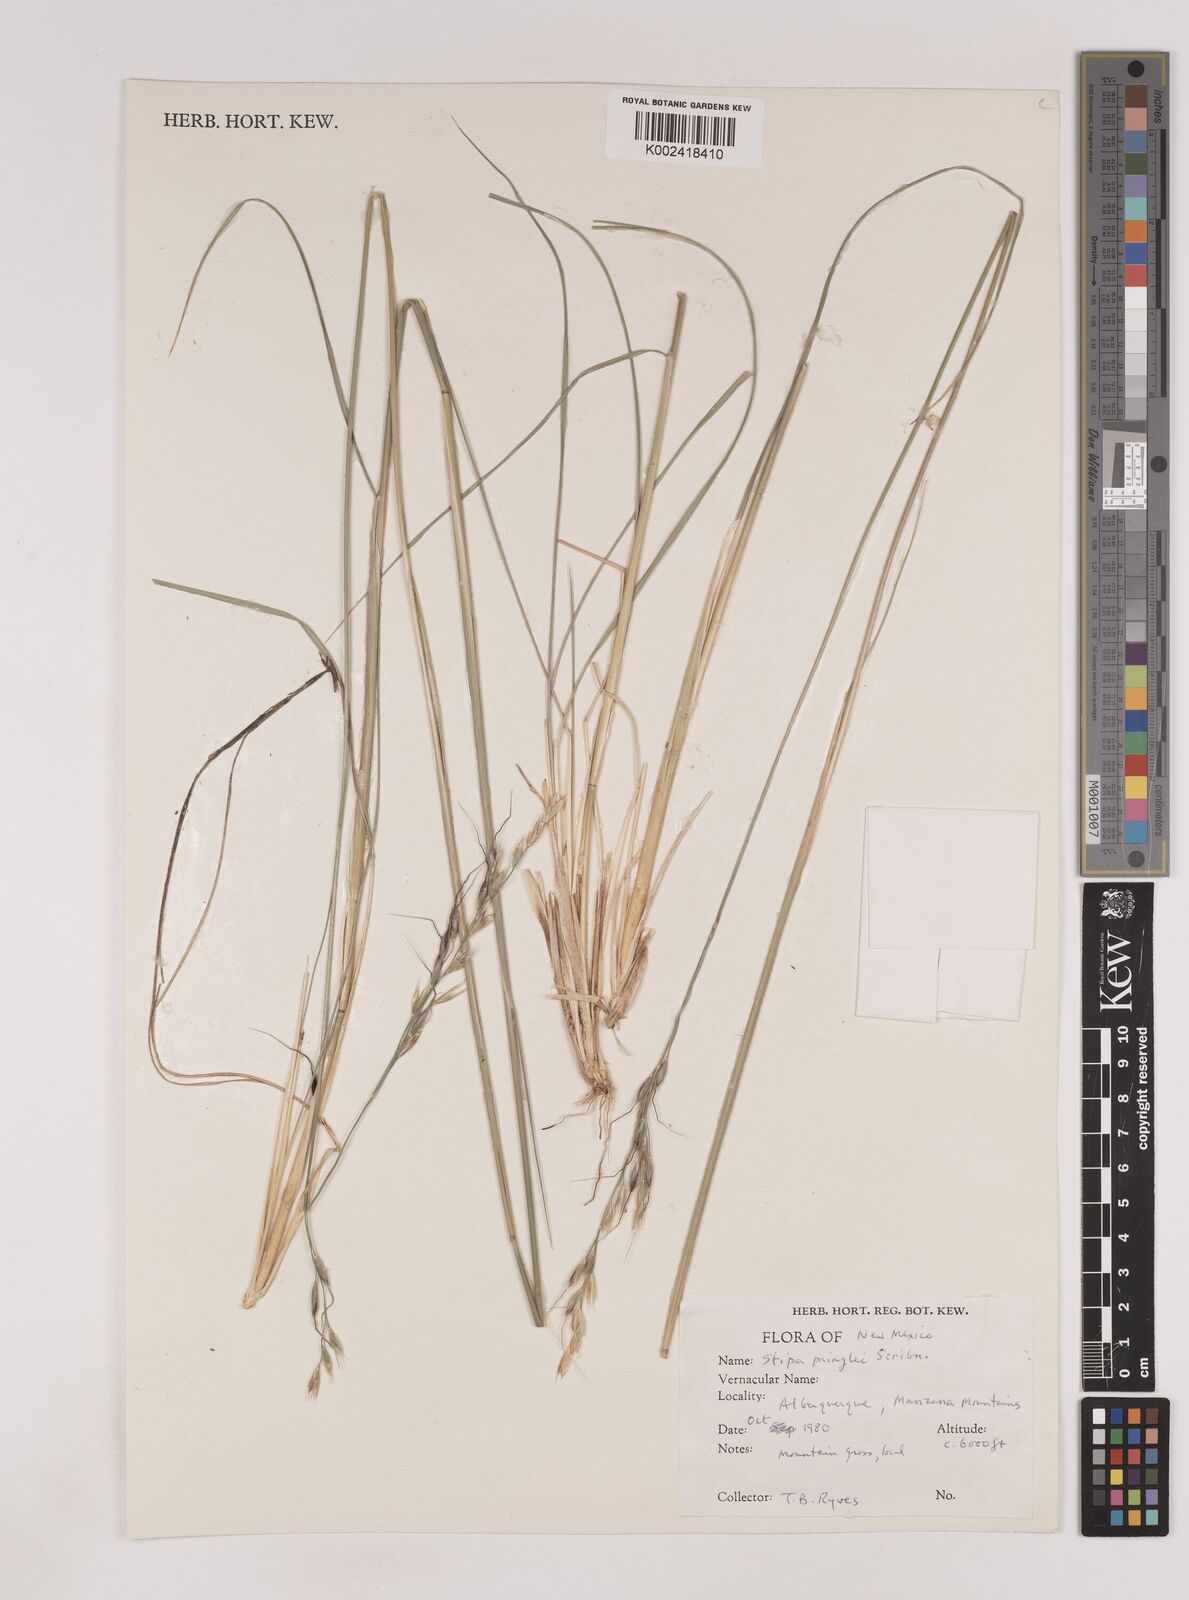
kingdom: Plantae
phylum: Tracheophyta
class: Liliopsida
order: Poales
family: Poaceae
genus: Piptochaetium
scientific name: Piptochaetium pringlei
